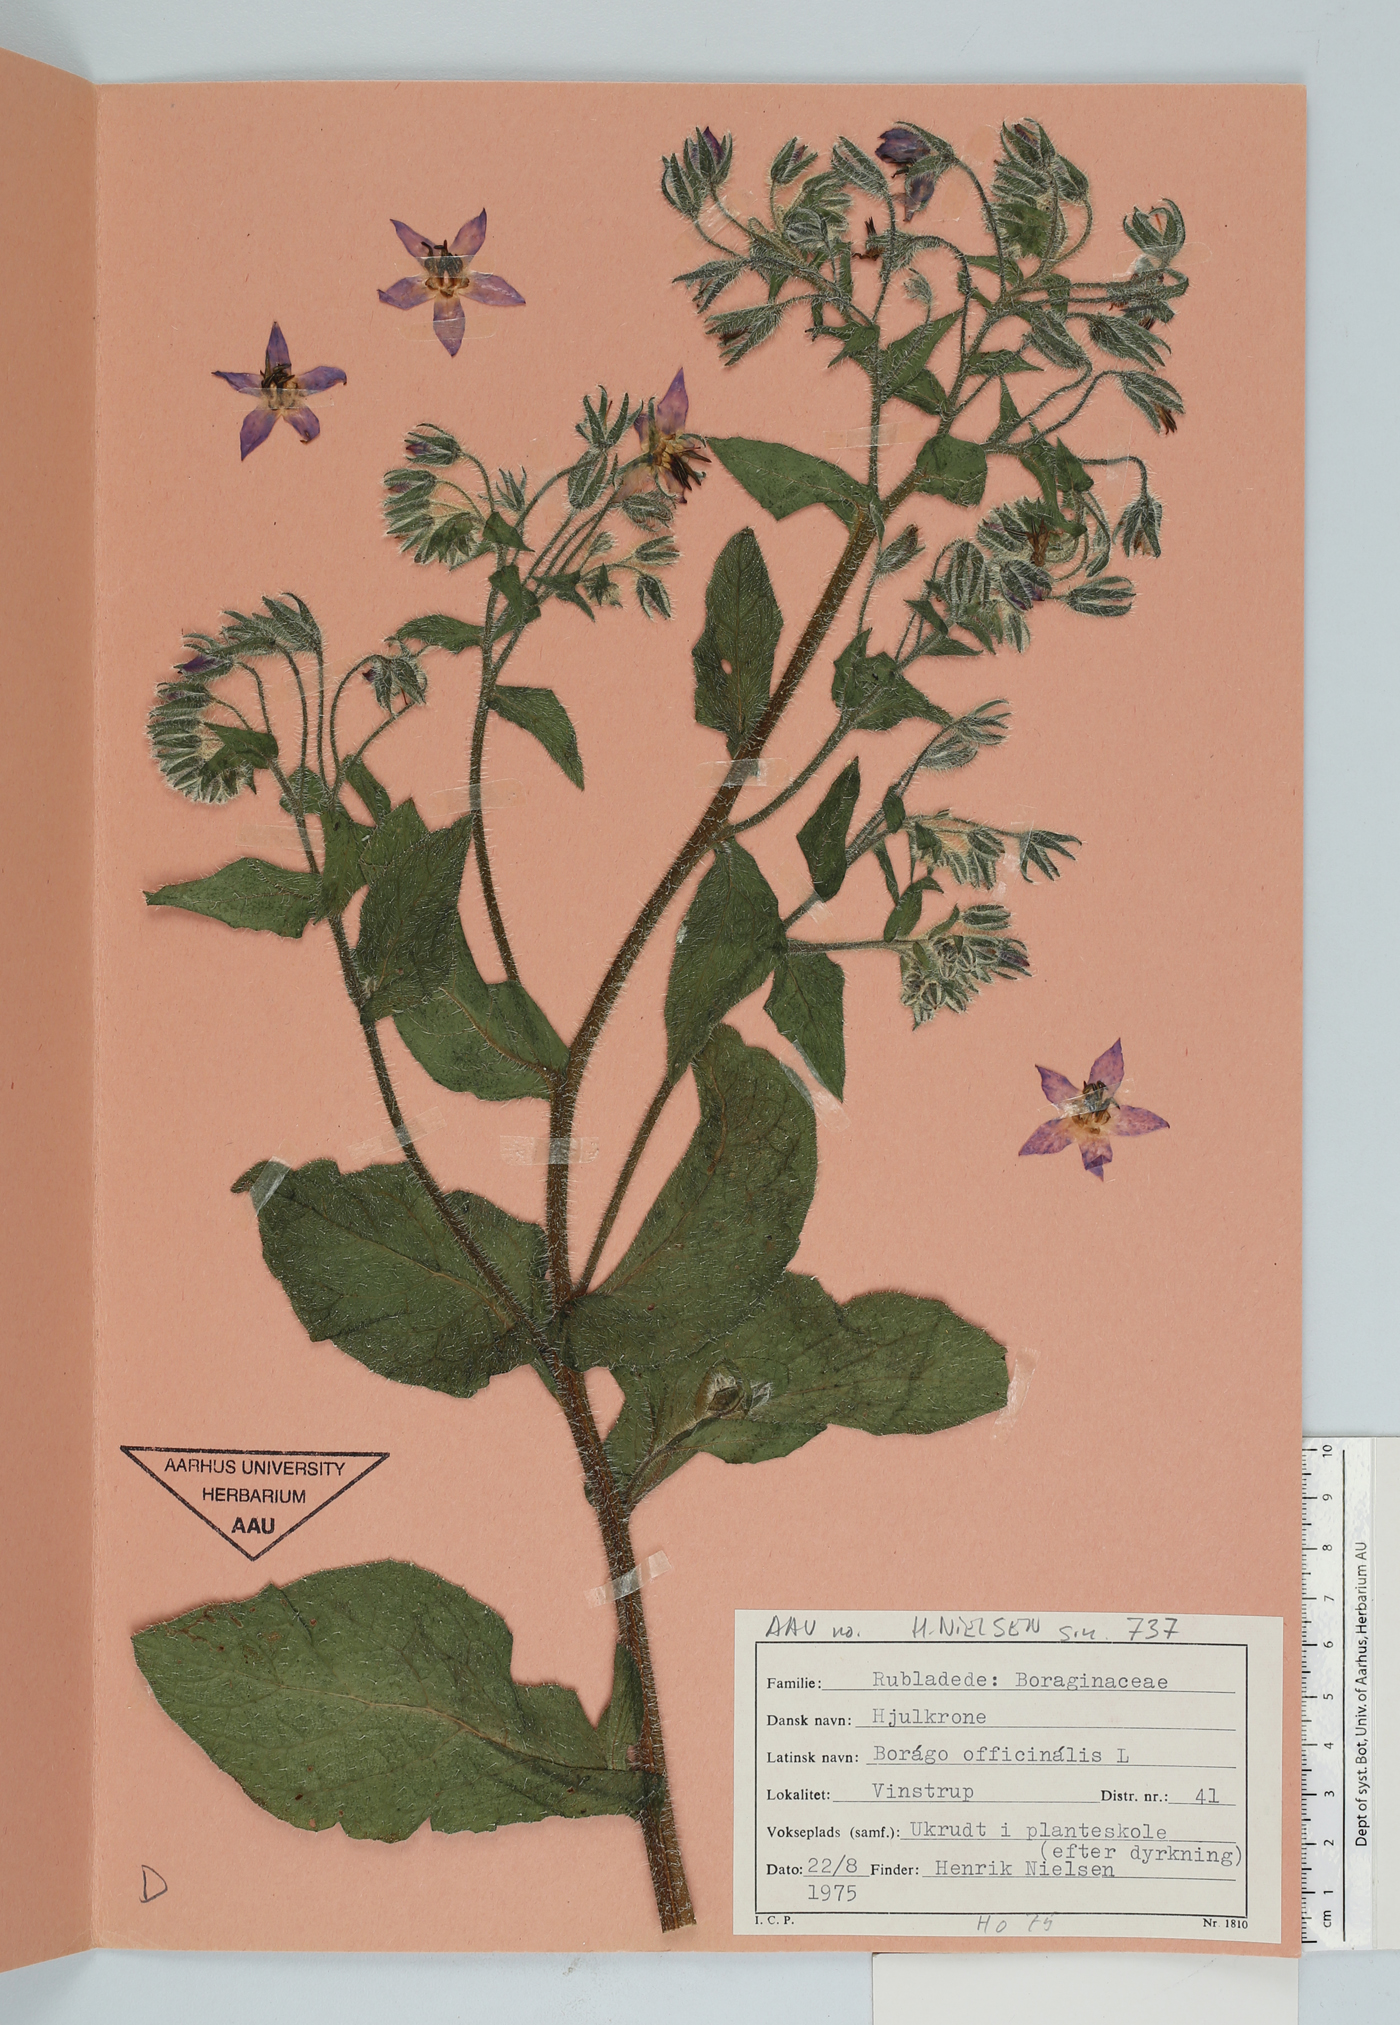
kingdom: Plantae
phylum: Tracheophyta
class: Magnoliopsida
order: Boraginales
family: Boraginaceae
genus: Borago
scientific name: Borago officinalis
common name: Borage
